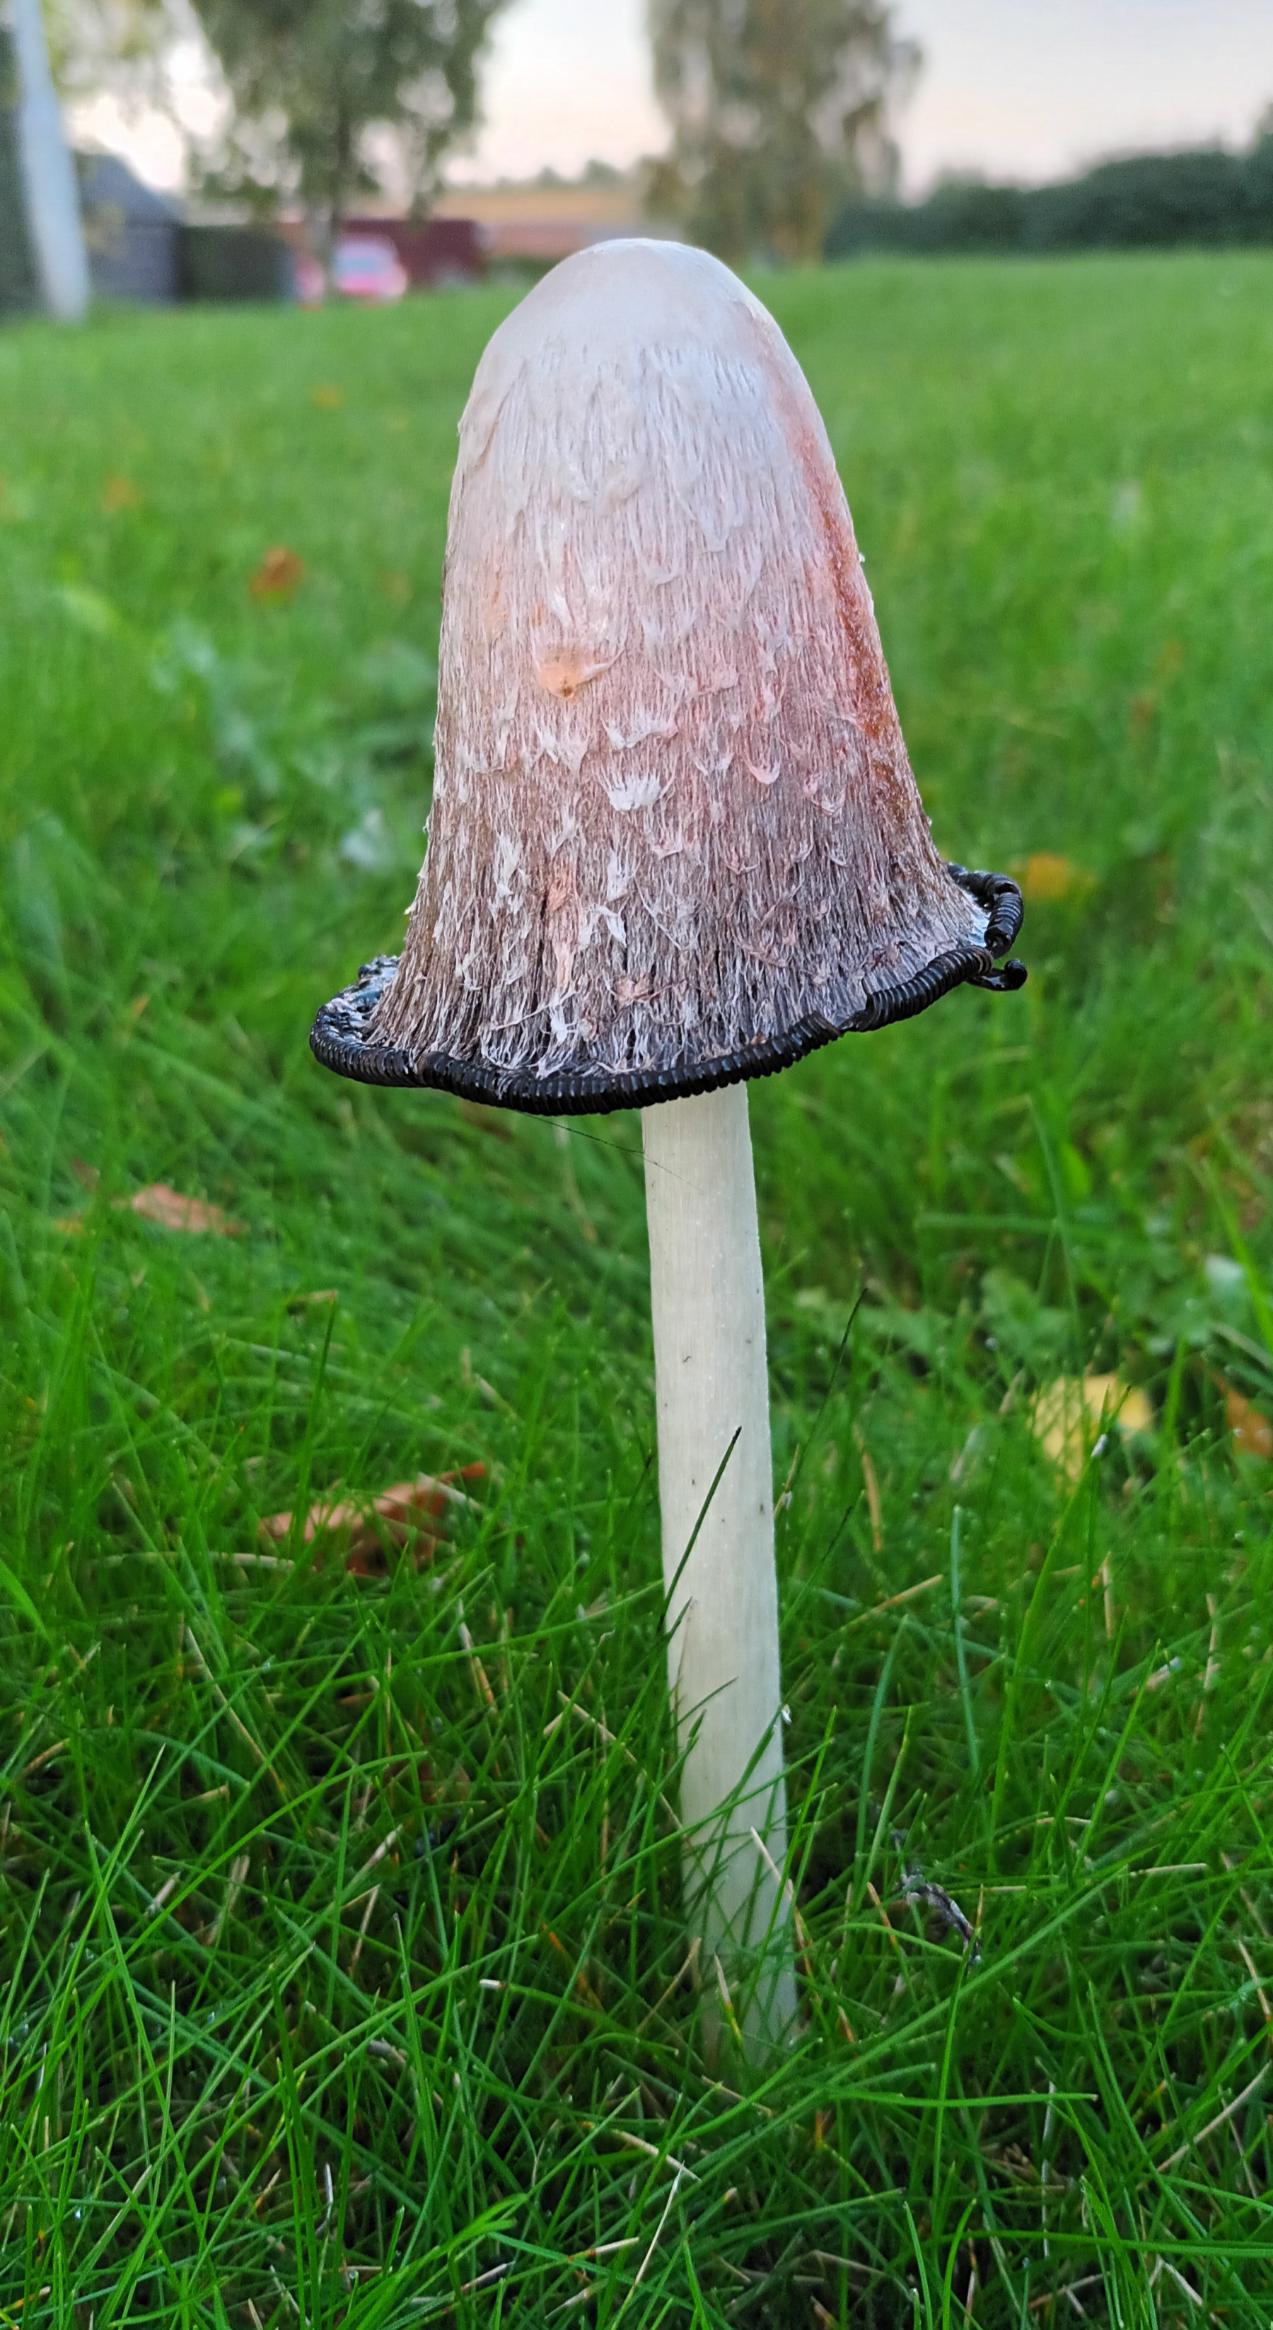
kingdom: Fungi
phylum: Basidiomycota
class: Agaricomycetes
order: Agaricales
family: Agaricaceae
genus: Coprinus
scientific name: Coprinus comatus
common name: Stor parykhat
